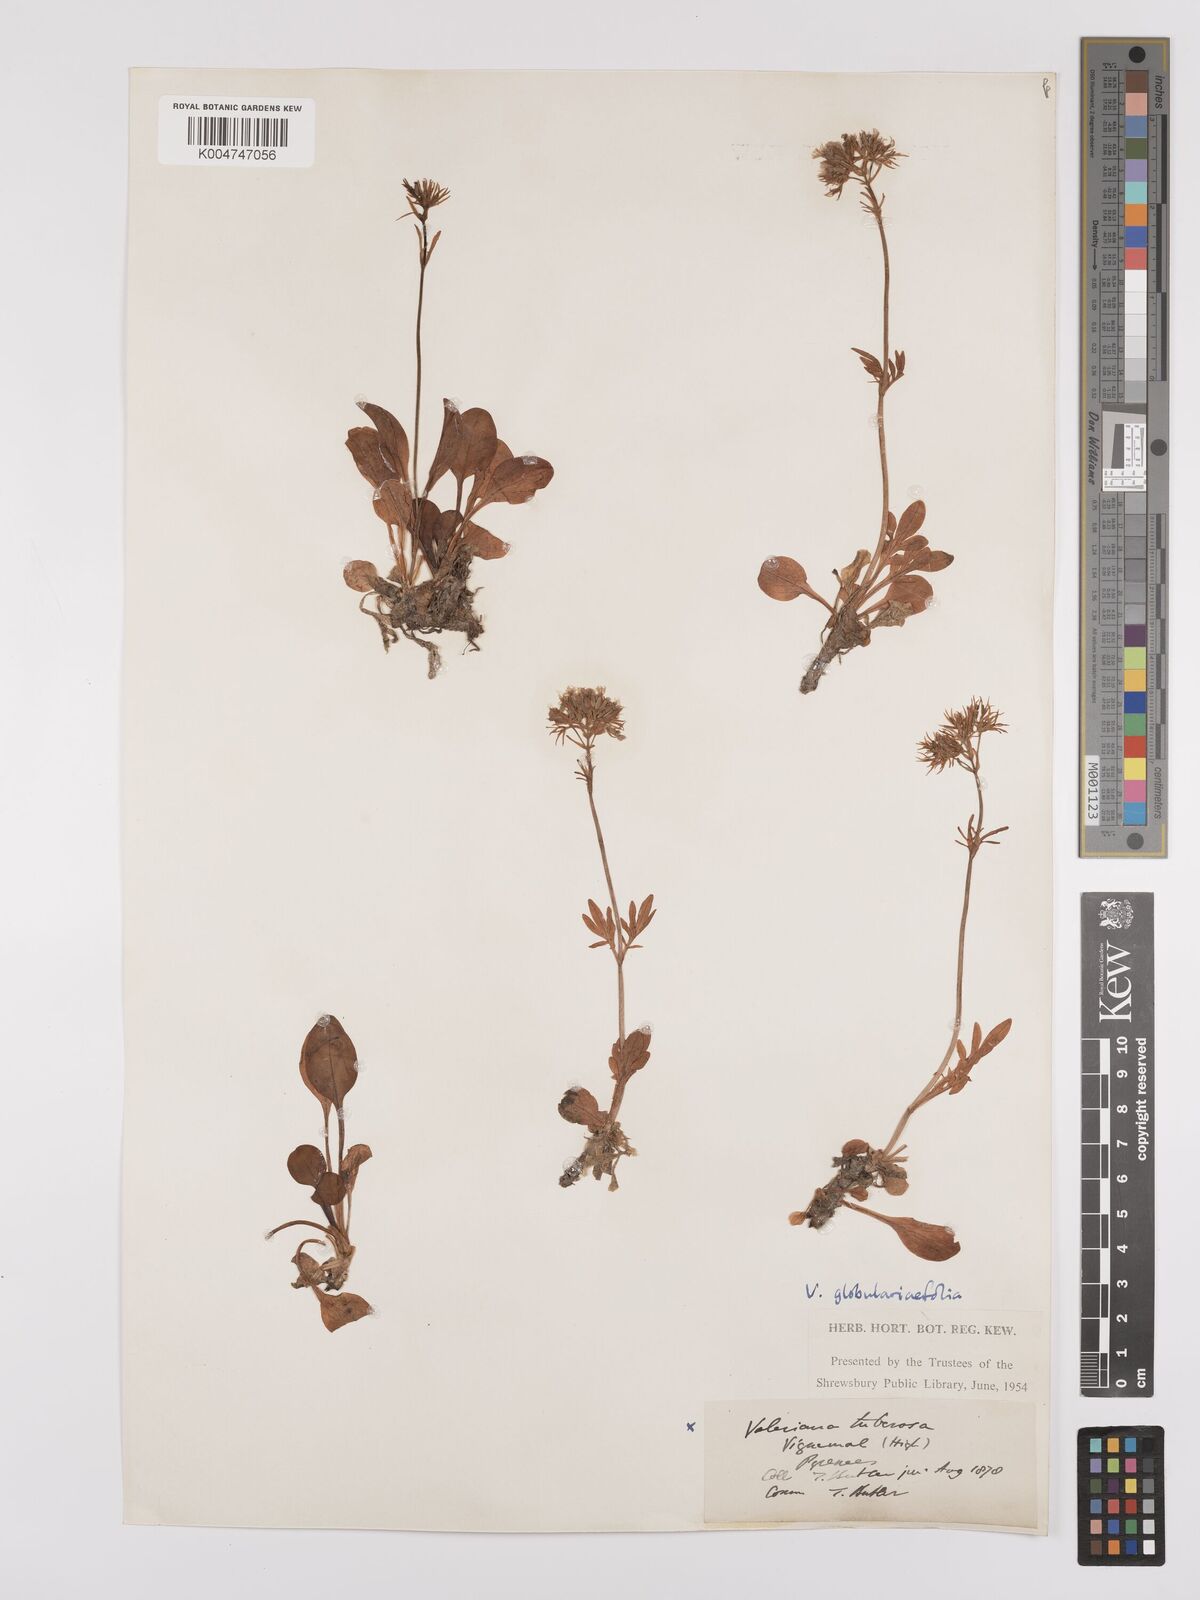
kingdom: Plantae
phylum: Tracheophyta
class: Magnoliopsida
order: Dipsacales
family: Caprifoliaceae
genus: Valeriana
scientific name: Valeriana apula
